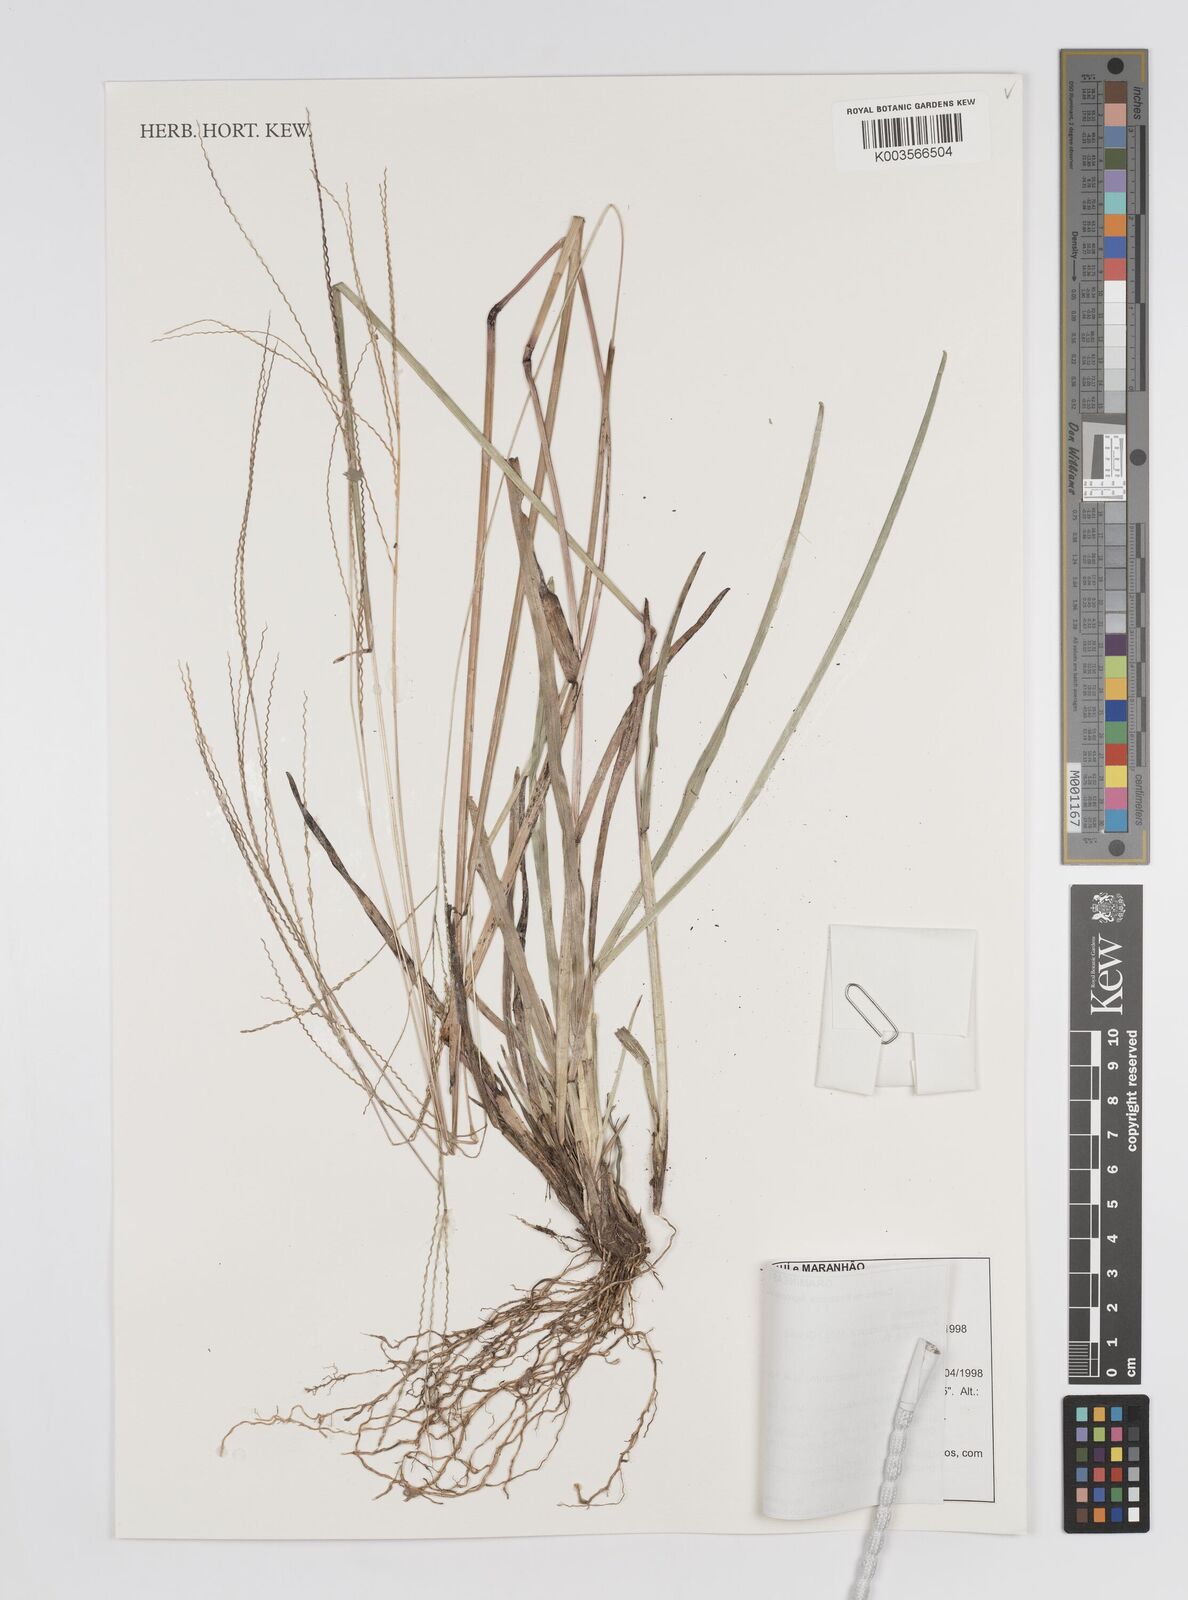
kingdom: Plantae
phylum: Tracheophyta
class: Liliopsida
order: Poales
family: Poaceae
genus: Axonopus
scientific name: Axonopus purpusii
